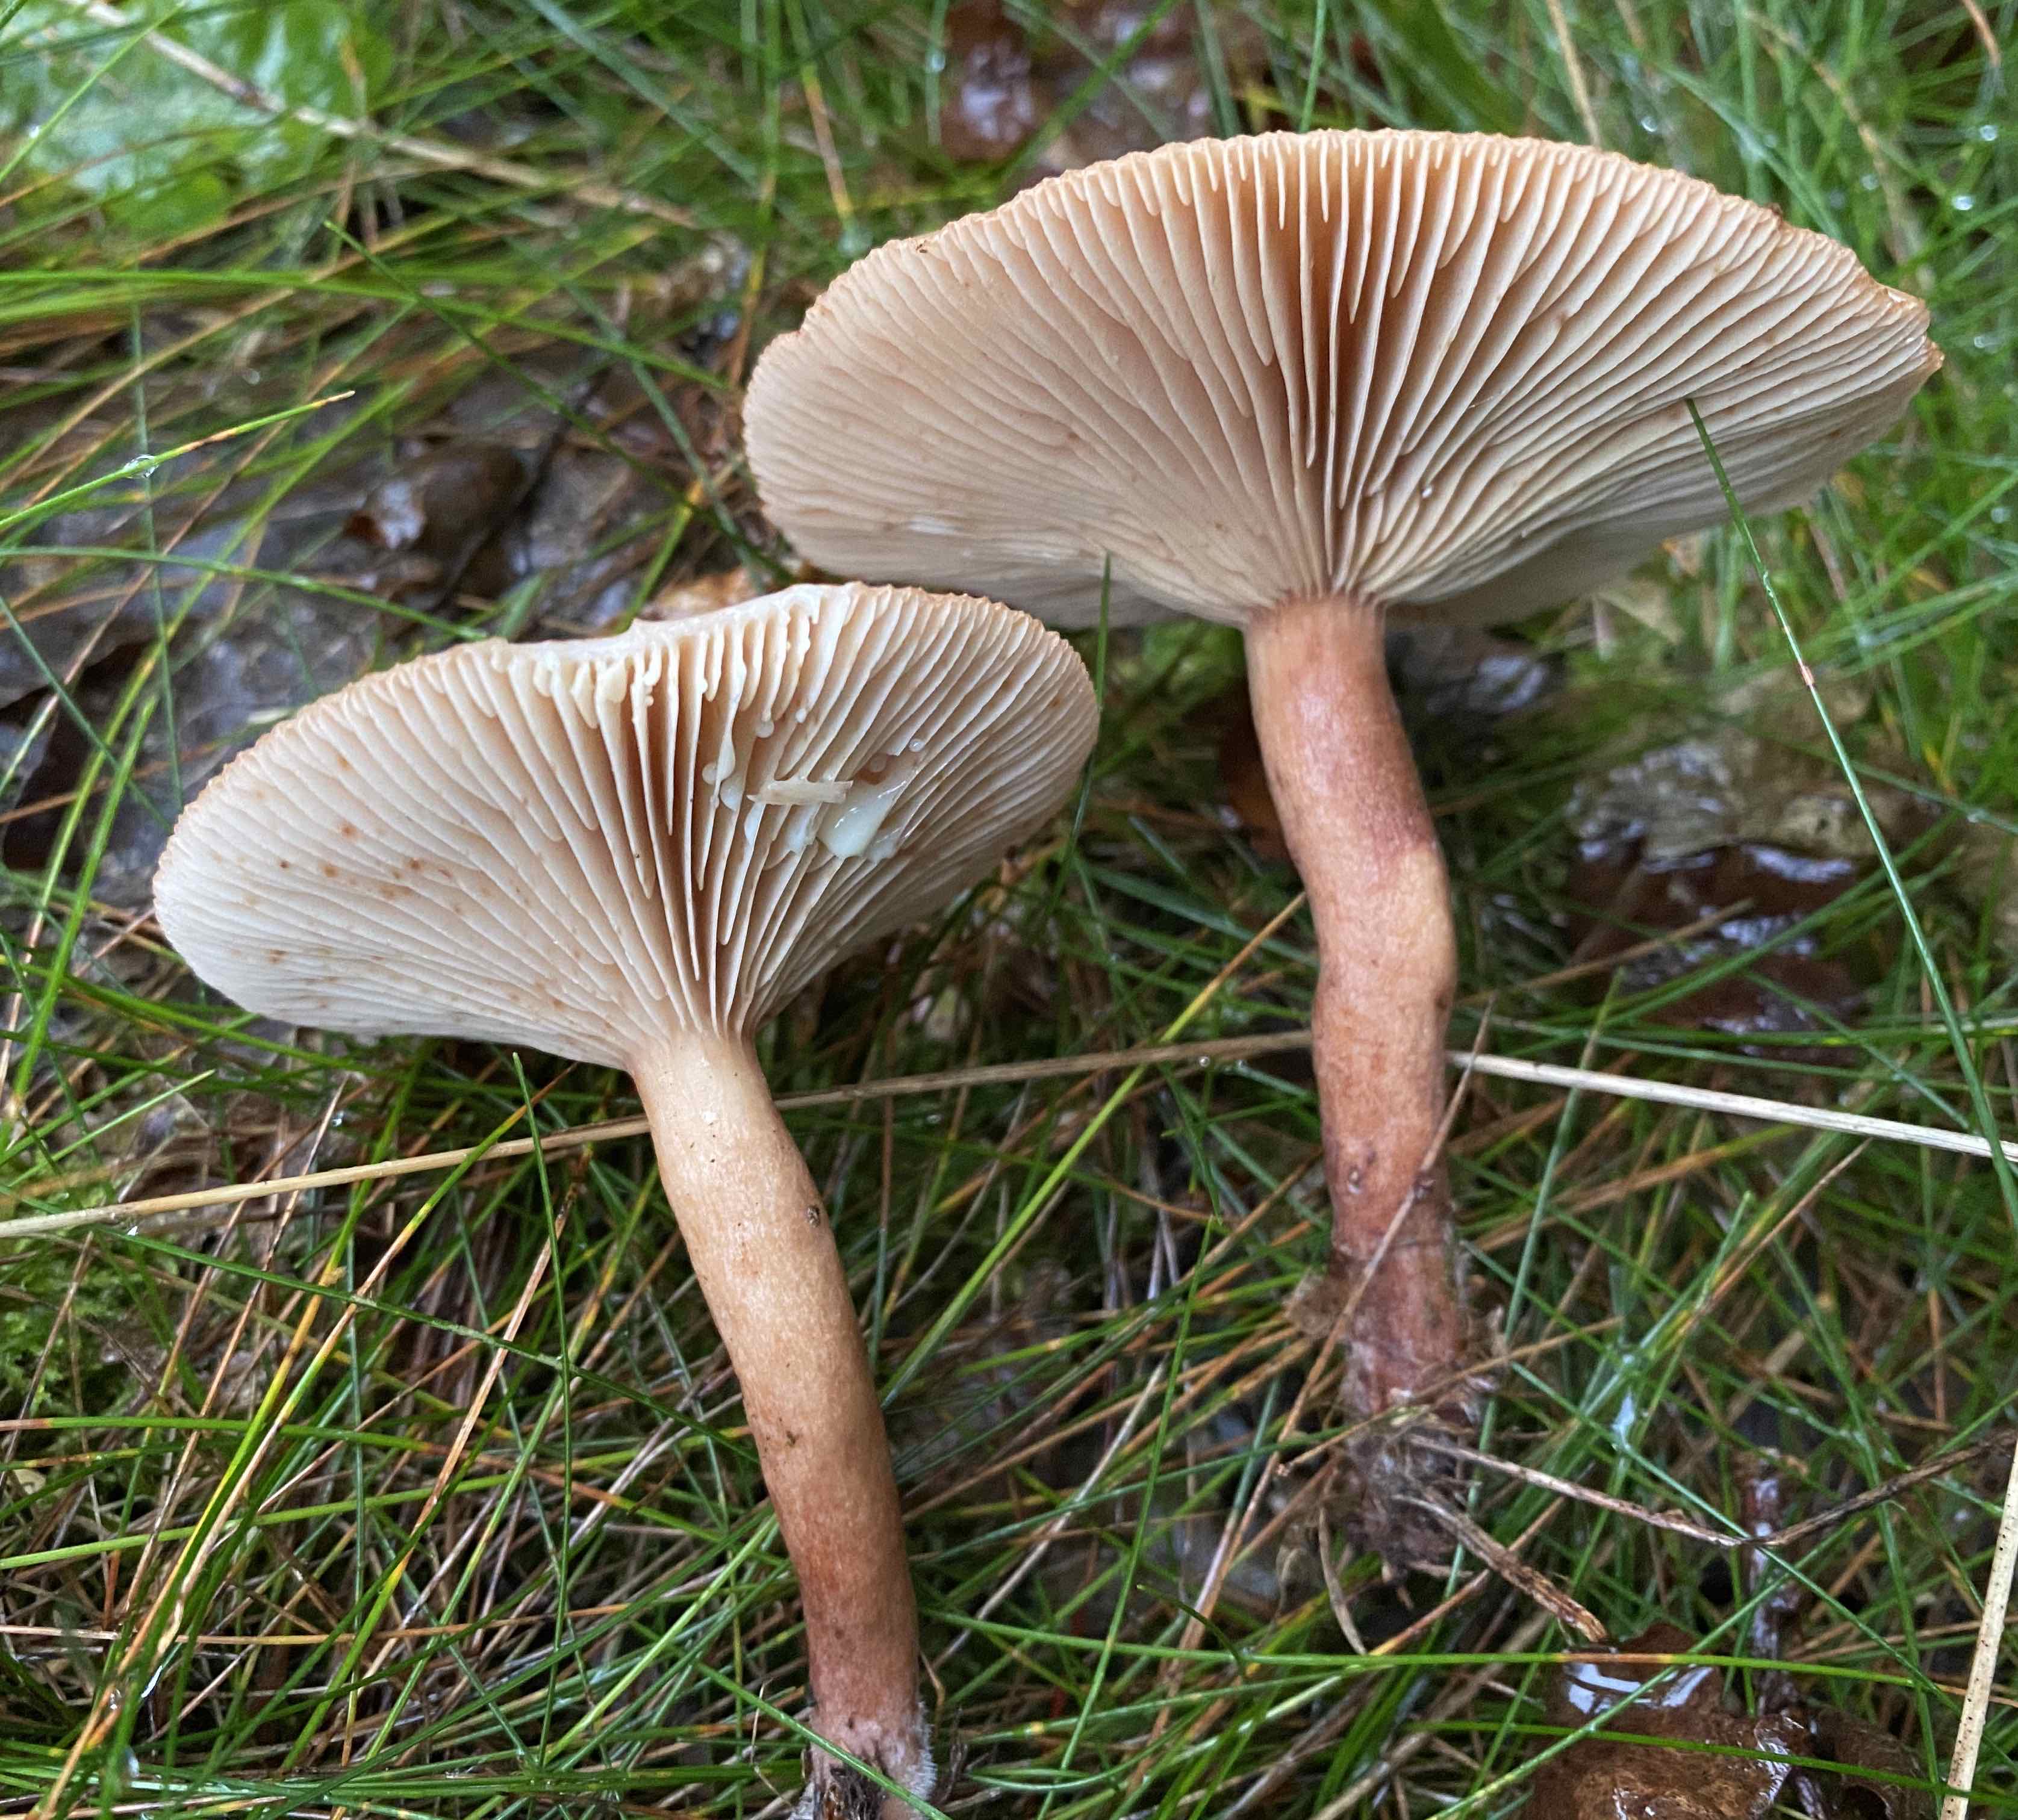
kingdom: Fungi
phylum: Basidiomycota
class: Agaricomycetes
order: Russulales
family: Russulaceae
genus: Lactarius
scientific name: Lactarius quietus
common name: ege-mælkehat
